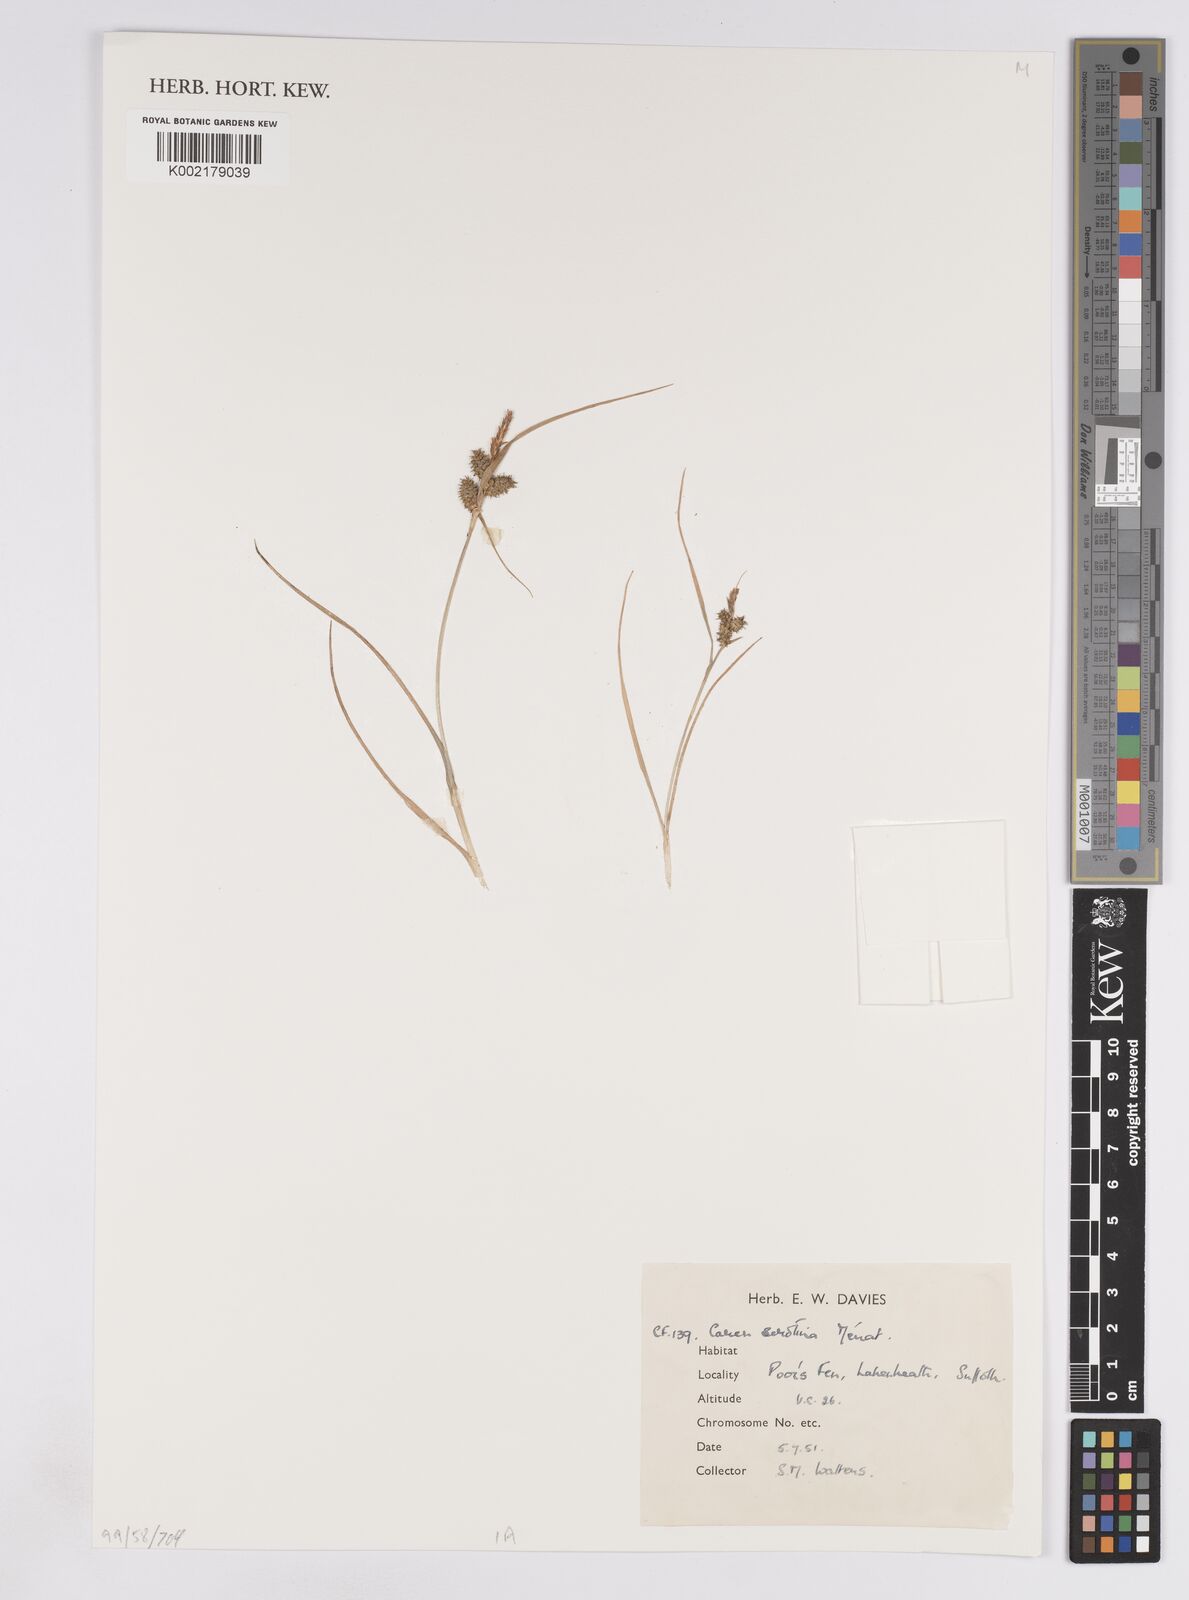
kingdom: Plantae
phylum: Tracheophyta
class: Liliopsida
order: Poales
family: Cyperaceae
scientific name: Cyperaceae
